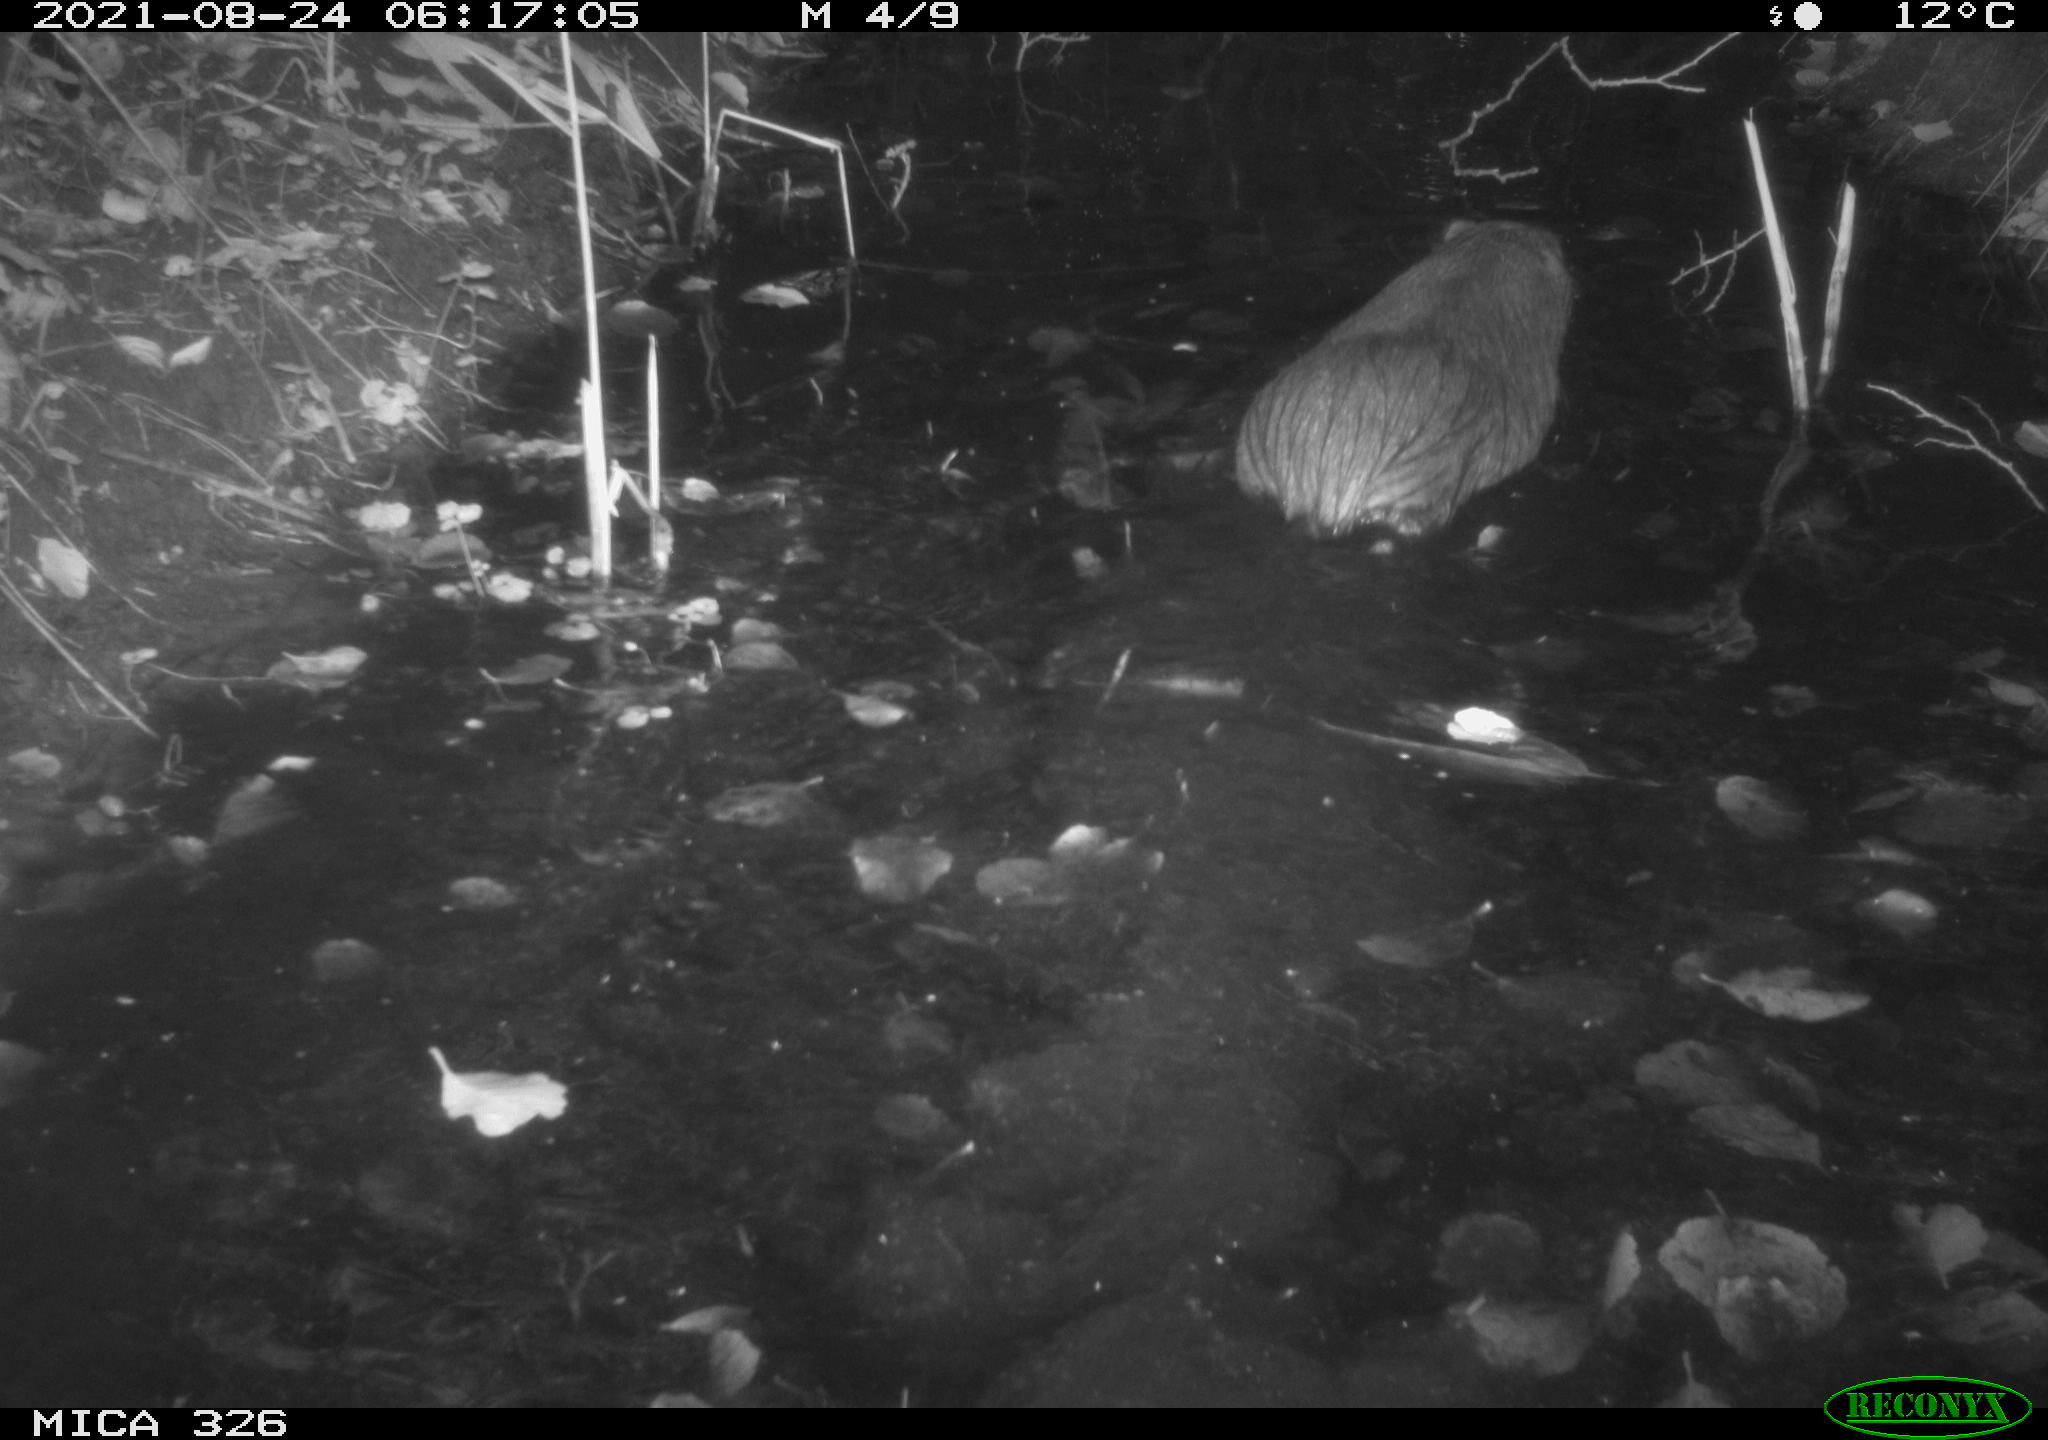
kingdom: Animalia
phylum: Chordata
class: Mammalia
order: Rodentia
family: Myocastoridae
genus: Myocastor
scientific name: Myocastor coypus
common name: Coypu
